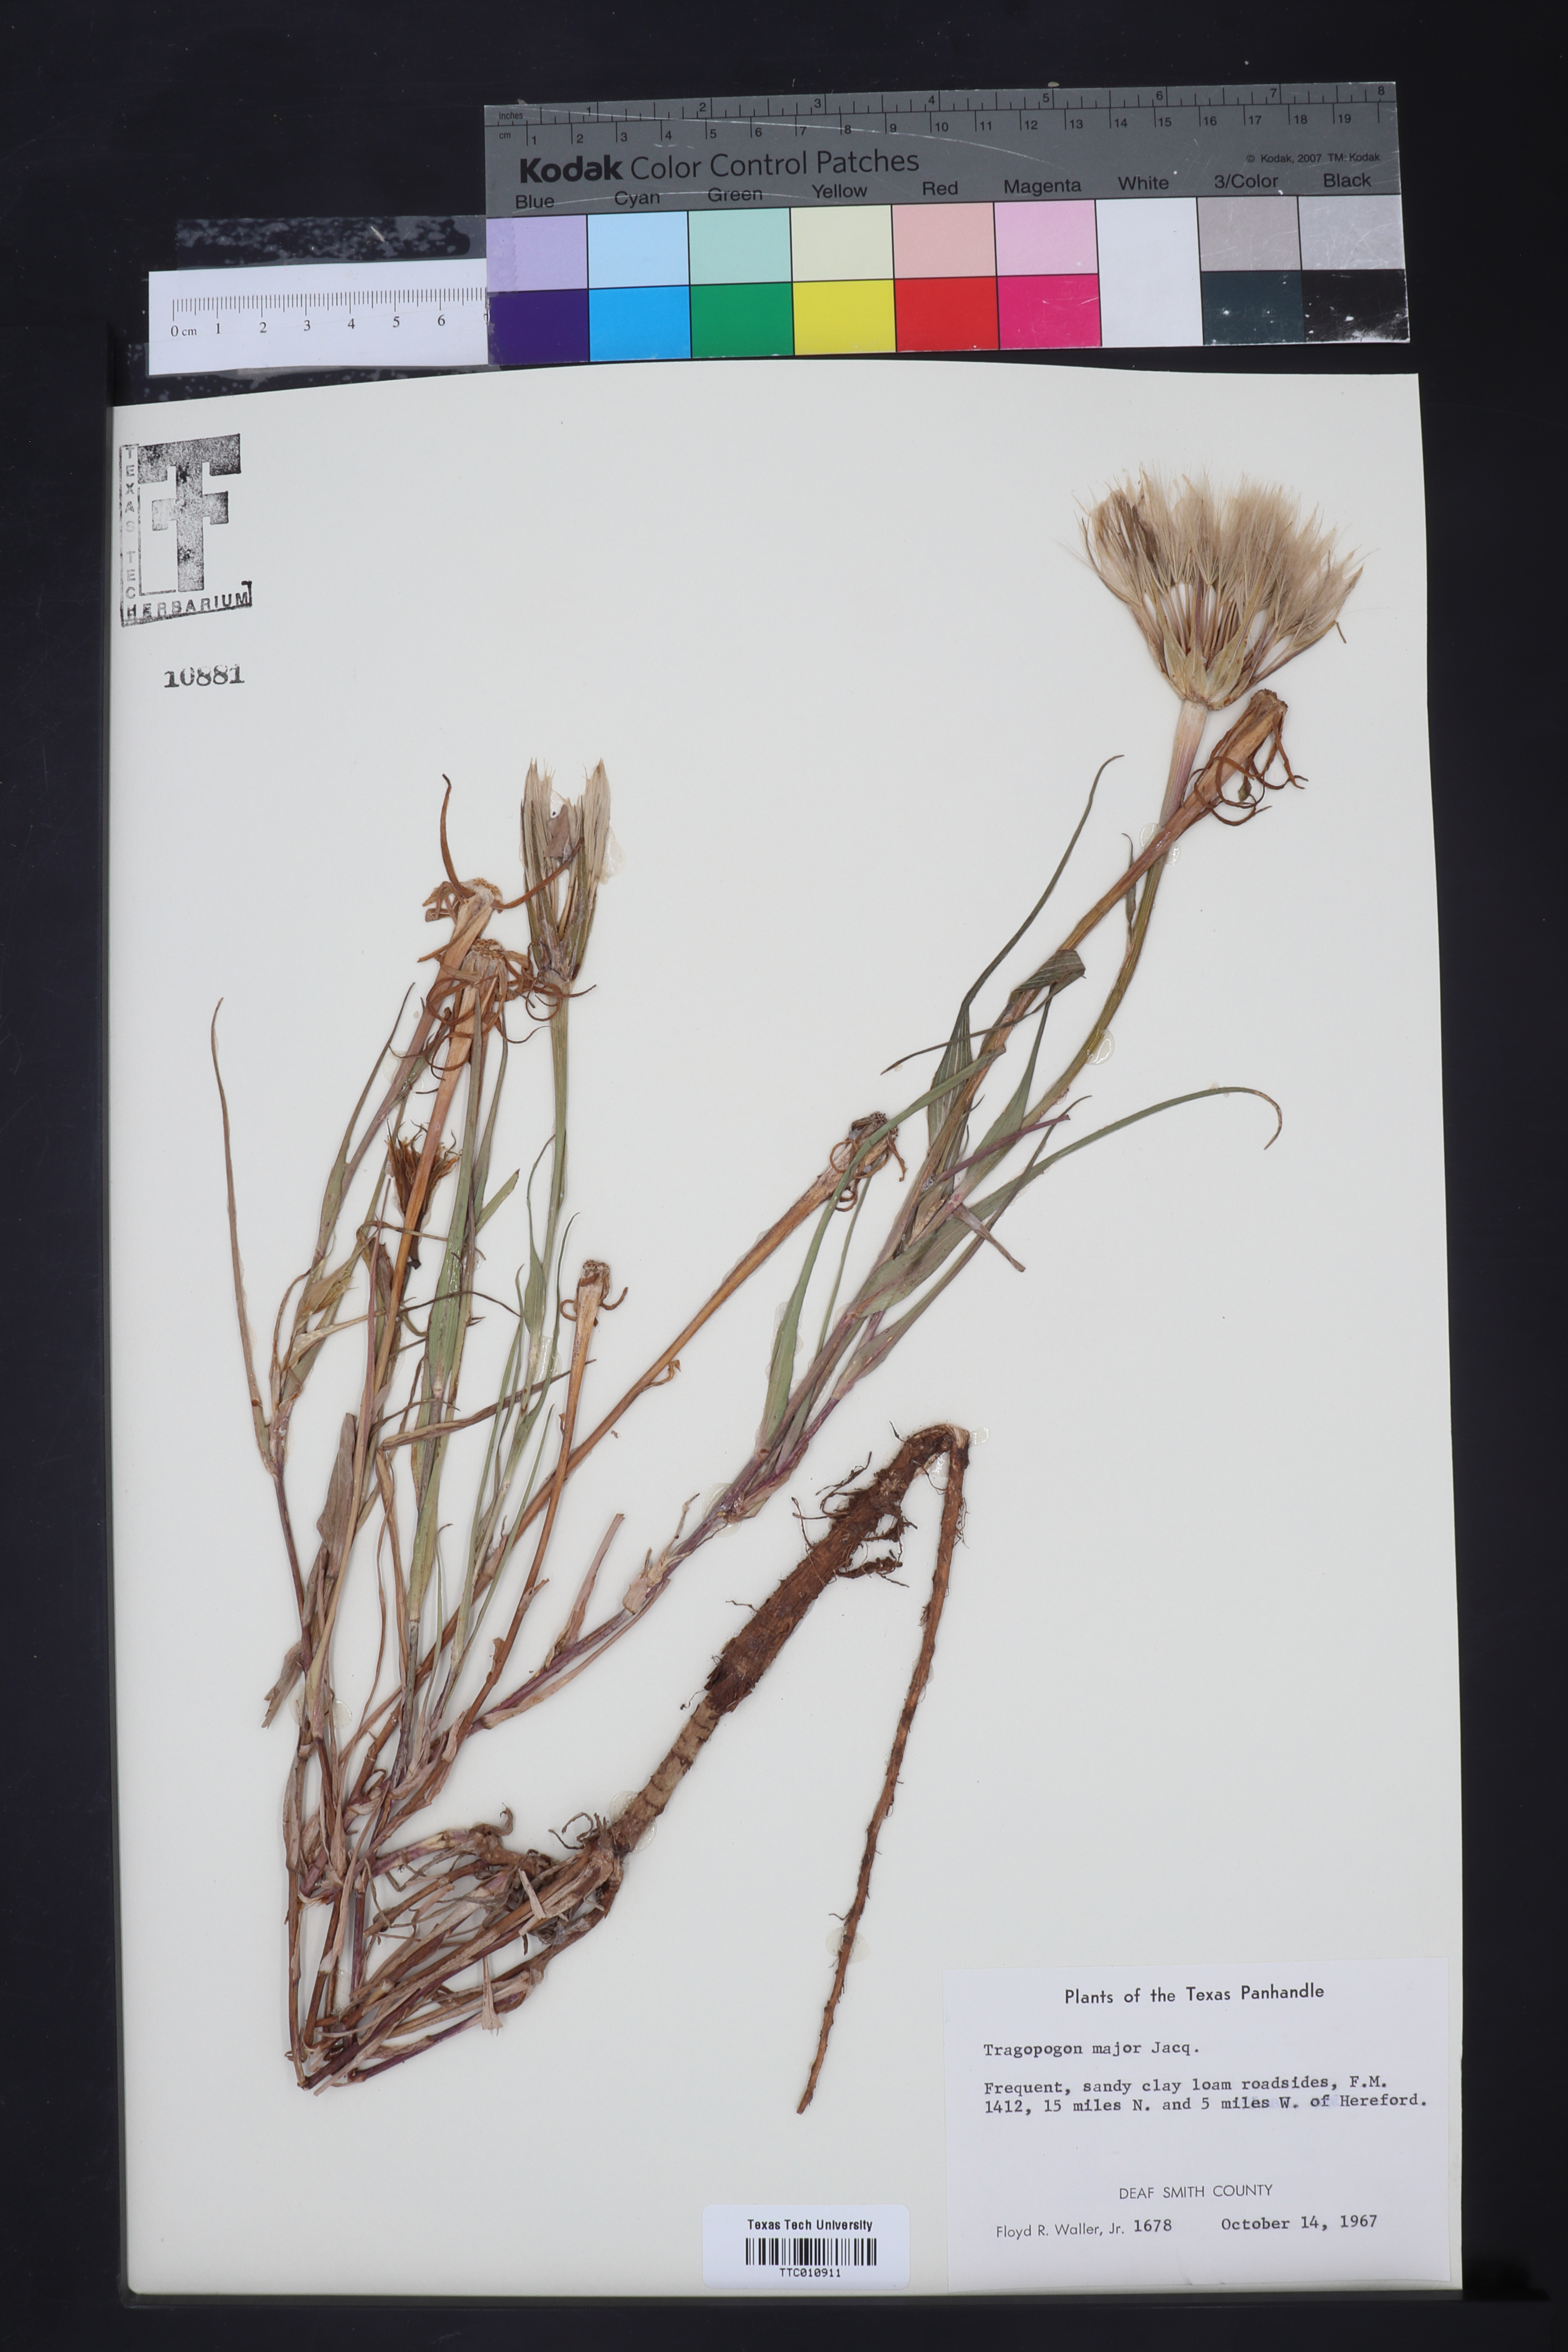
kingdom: Plantae
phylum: Tracheophyta
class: Magnoliopsida
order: Asterales
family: Asteraceae
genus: Tragopogon
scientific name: Tragopogon dubius
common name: Yellow salsify
